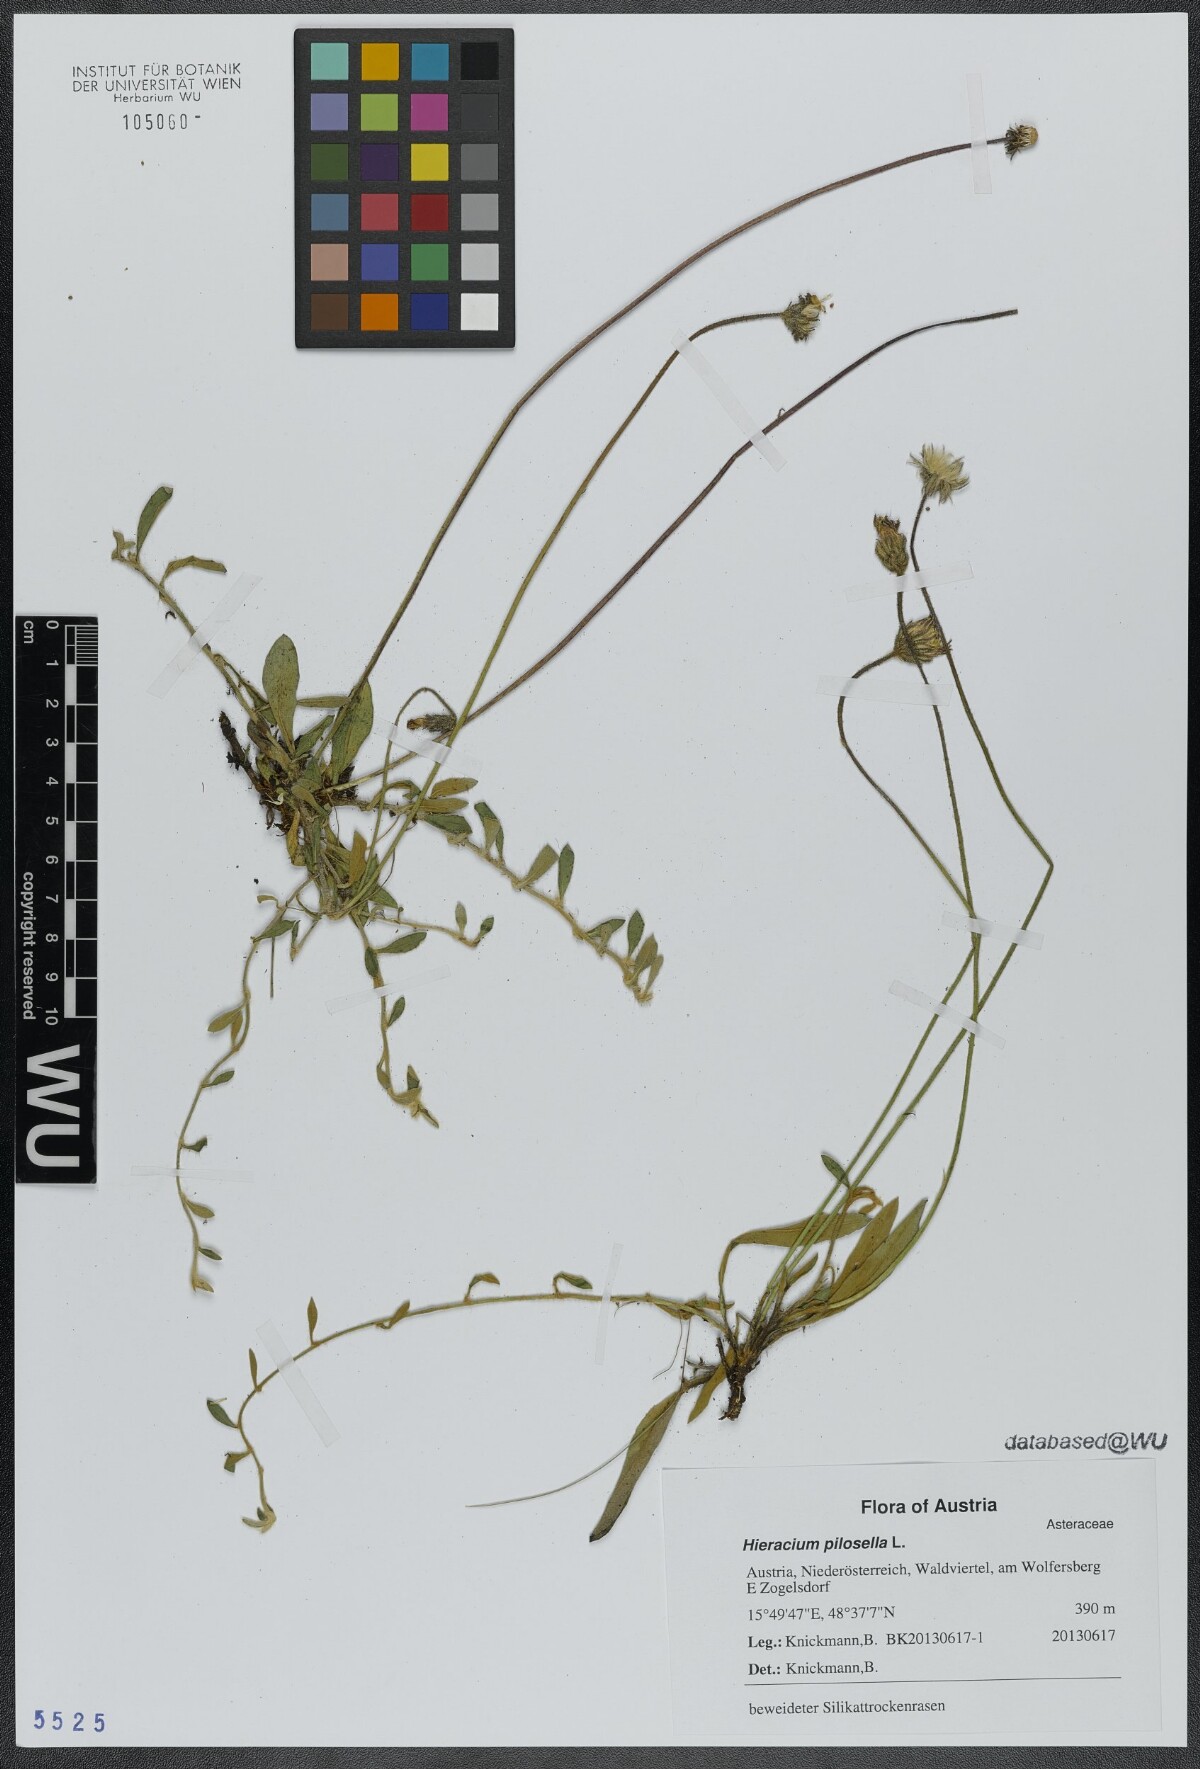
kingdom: Plantae
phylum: Tracheophyta
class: Magnoliopsida
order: Asterales
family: Asteraceae
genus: Pilosella
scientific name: Pilosella officinarum
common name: Mouse-ear hawkweed
